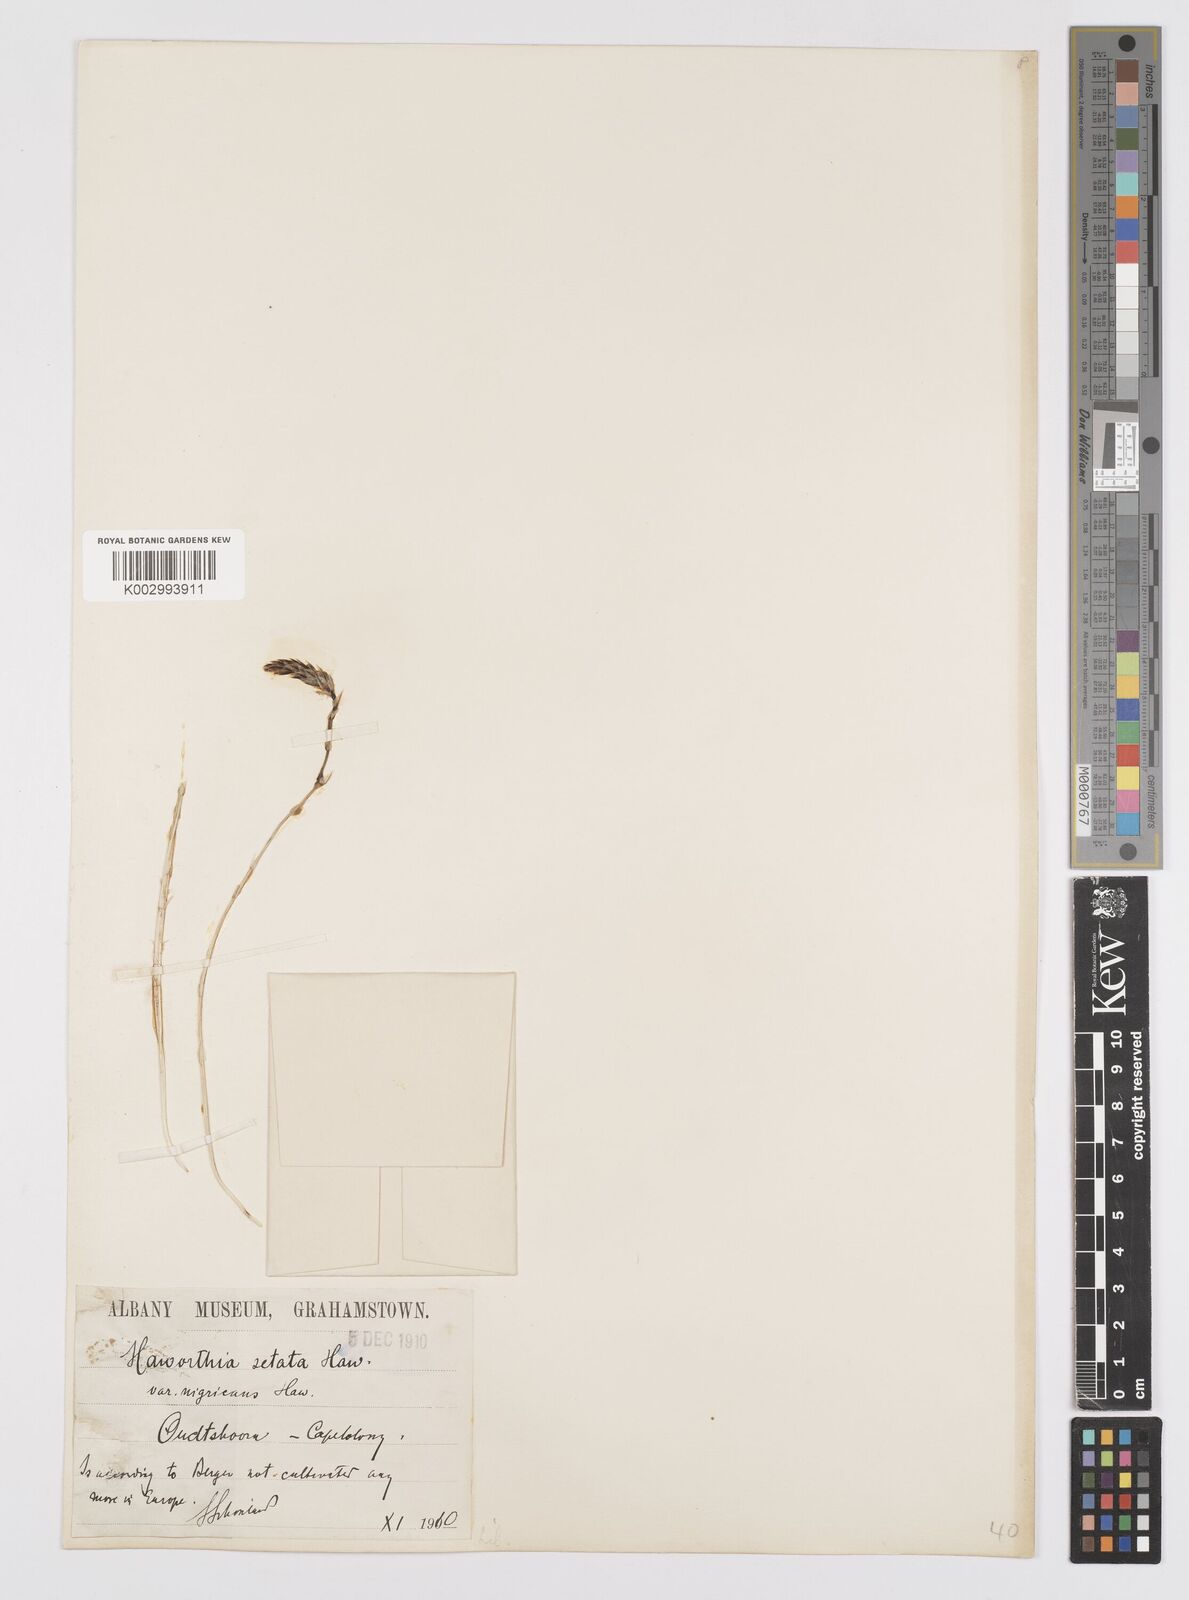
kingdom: Plantae
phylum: Tracheophyta
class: Liliopsida
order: Asparagales
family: Asphodelaceae
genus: Haworthia
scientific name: Haworthia arachnoidea
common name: Cobweb-aloe
